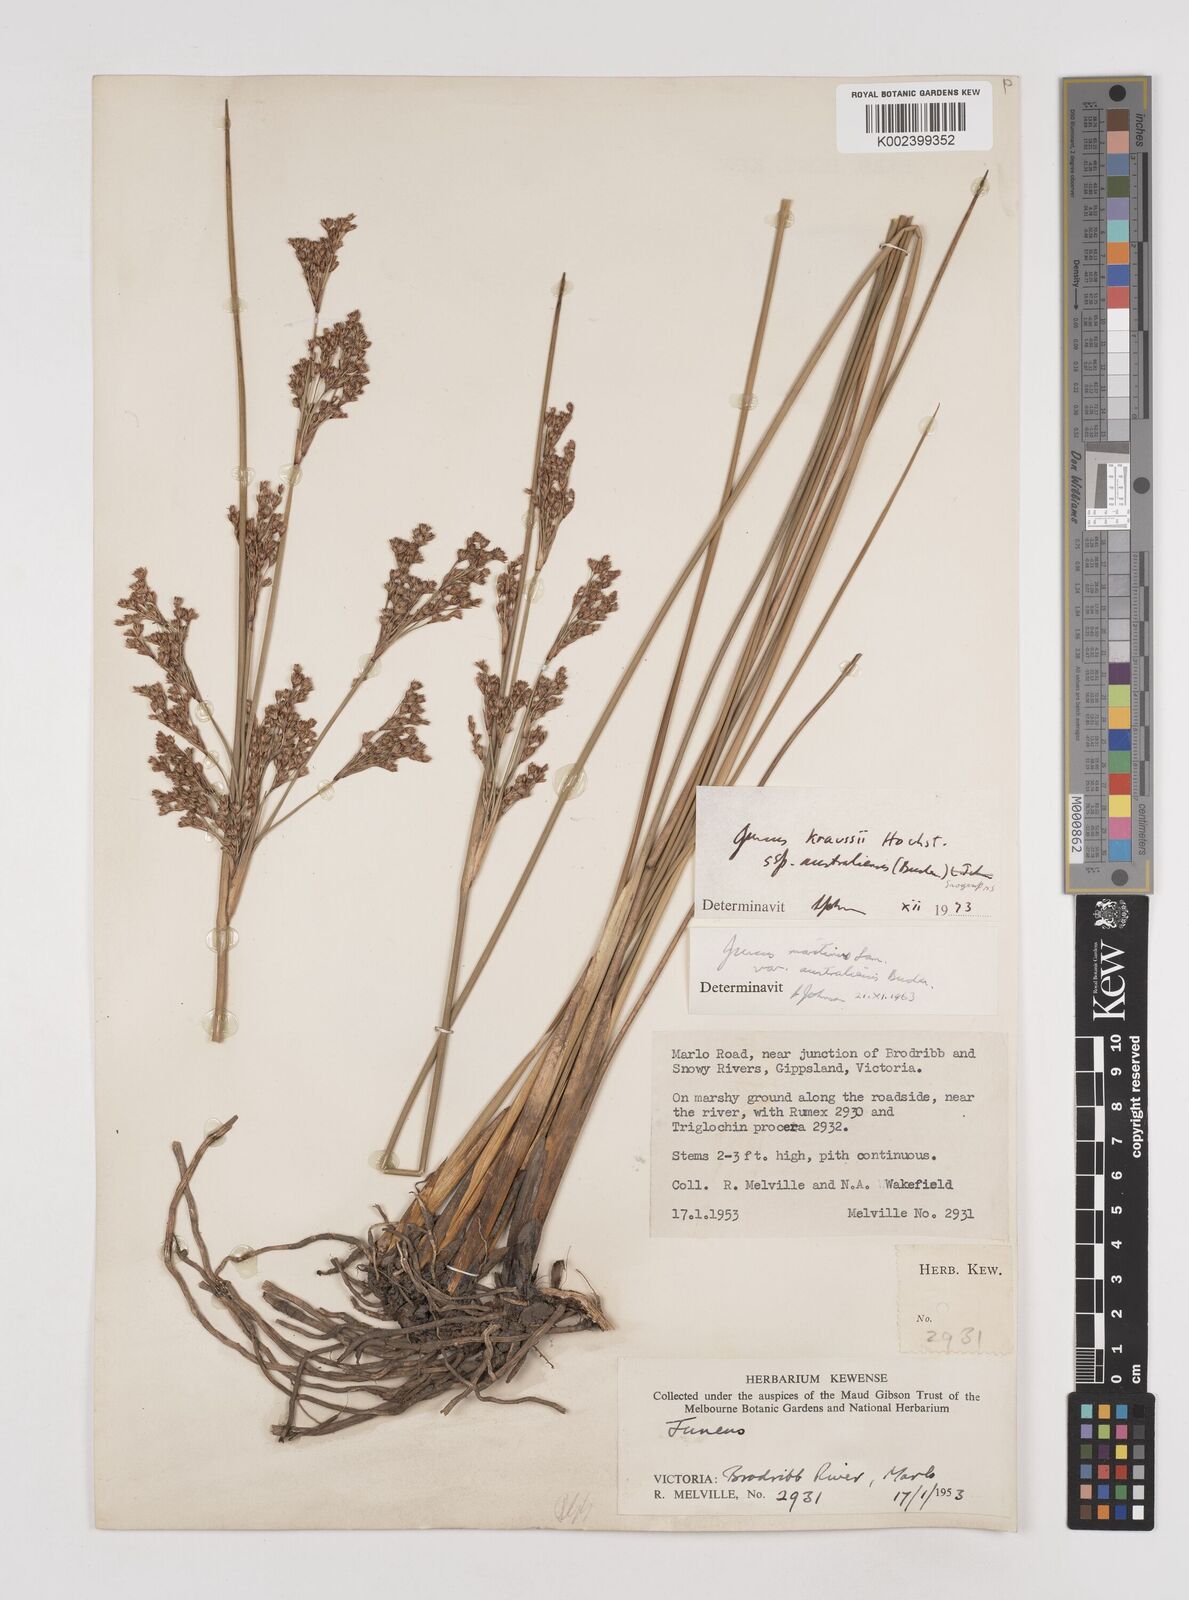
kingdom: Plantae
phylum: Tracheophyta
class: Liliopsida
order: Poales
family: Juncaceae
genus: Juncus
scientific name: Juncus kraussii
